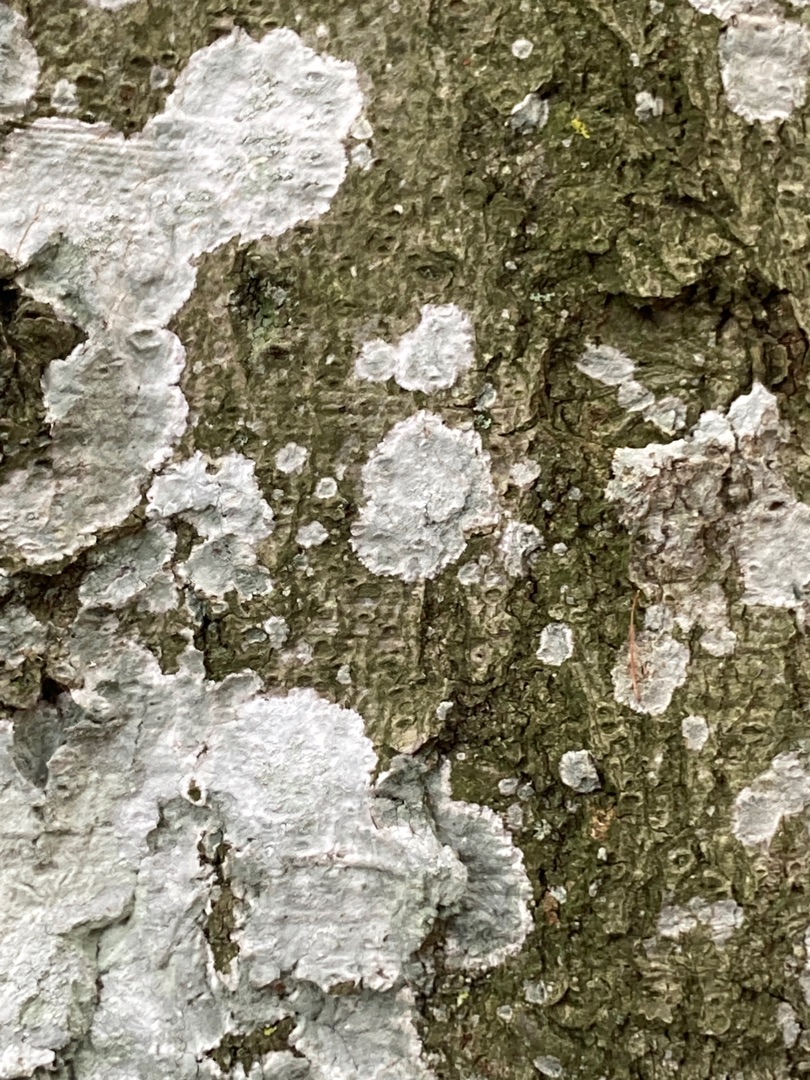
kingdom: Fungi
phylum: Ascomycota
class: Lecanoromycetes
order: Ostropales
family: Phlyctidaceae
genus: Phlyctis
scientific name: Phlyctis argena
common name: Almindelig sølvlav
